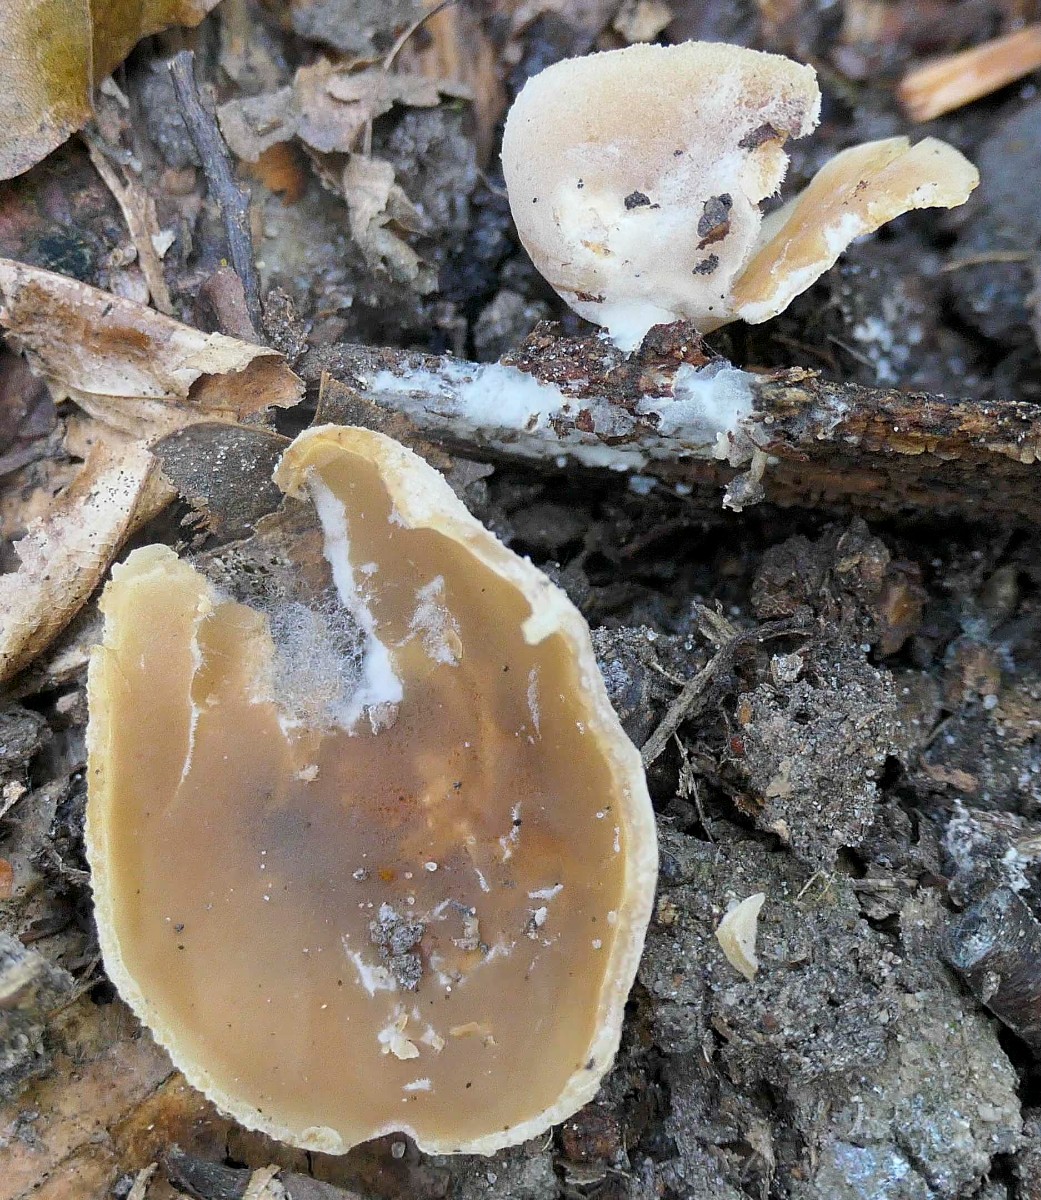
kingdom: Fungi
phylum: Ascomycota
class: Pezizomycetes
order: Pezizales
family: Pezizaceae
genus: Peziza
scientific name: Peziza varia
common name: Ved-bægersvamp
